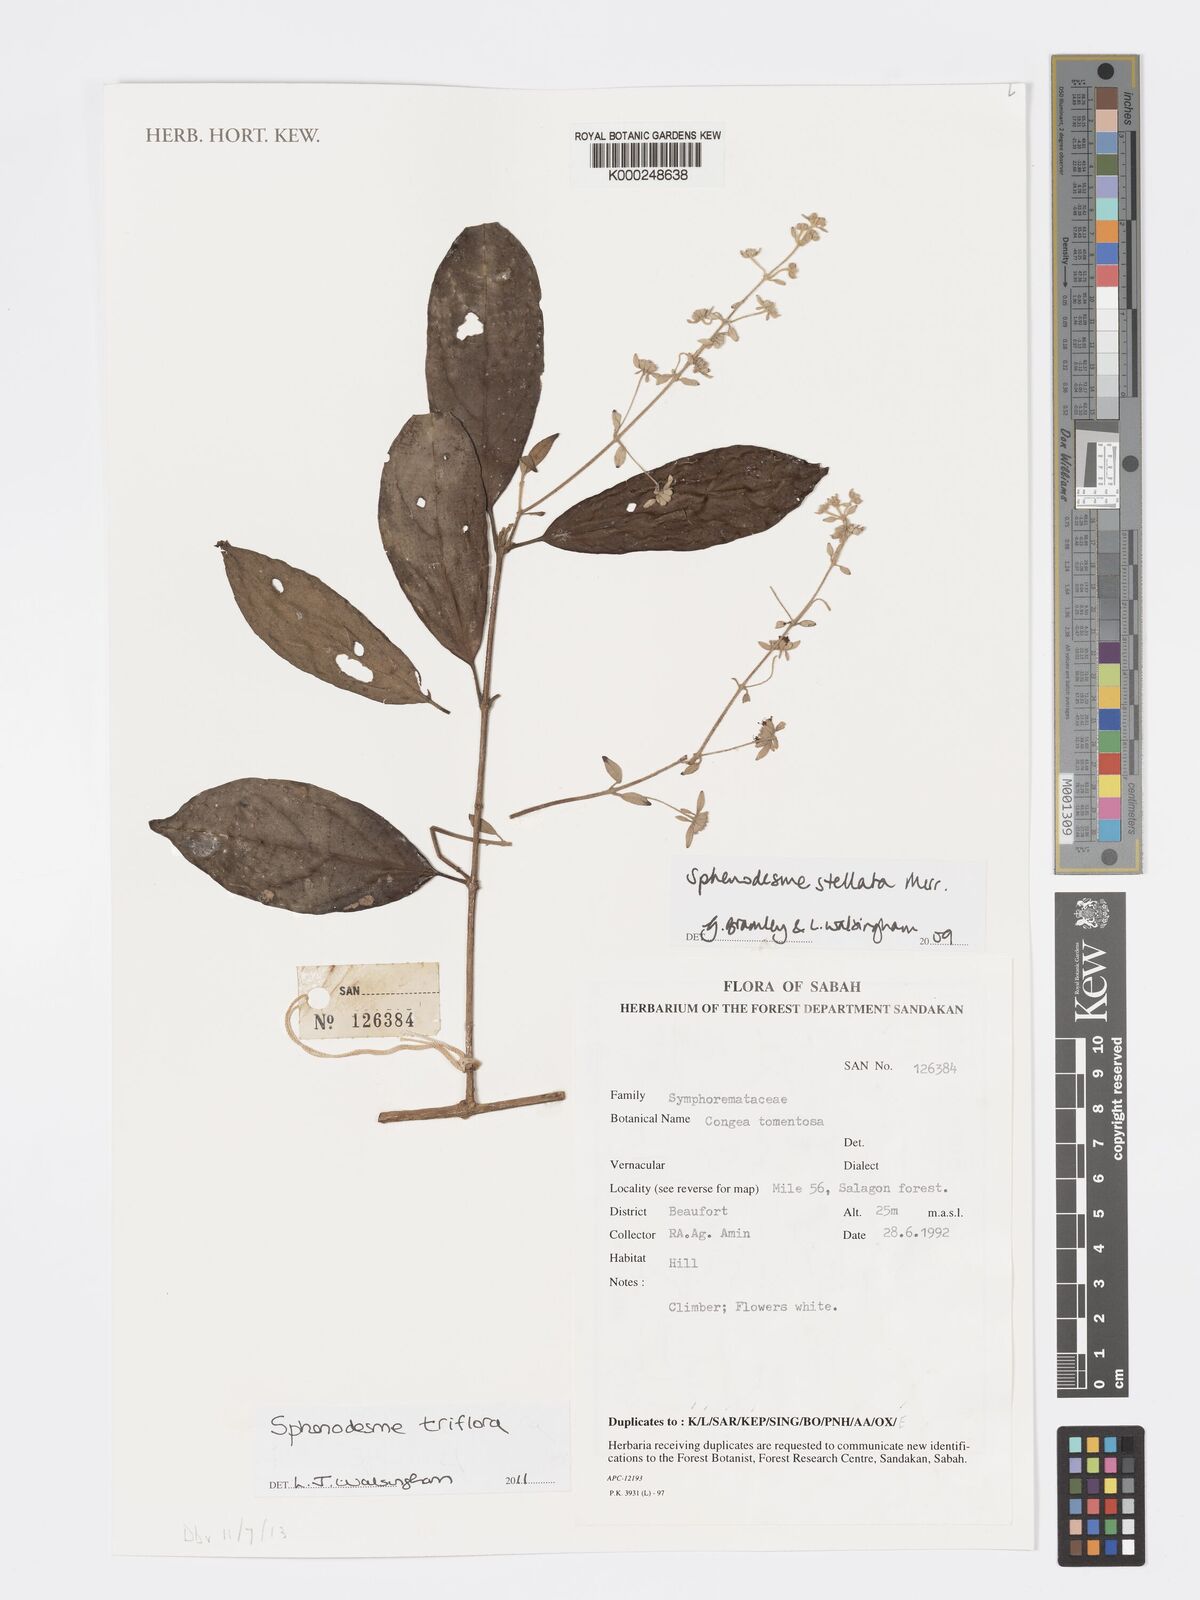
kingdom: Plantae
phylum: Tracheophyta
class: Magnoliopsida
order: Lamiales
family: Lamiaceae
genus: Sphenodesme
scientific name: Sphenodesme triflora
